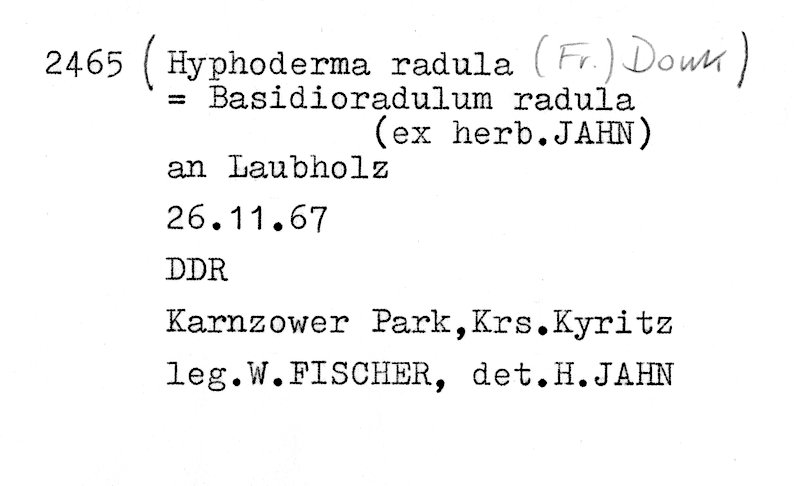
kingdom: Fungi
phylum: Basidiomycota
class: Agaricomycetes
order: Hymenochaetales
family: Schizoporaceae
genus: Xylodon
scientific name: Xylodon radula
